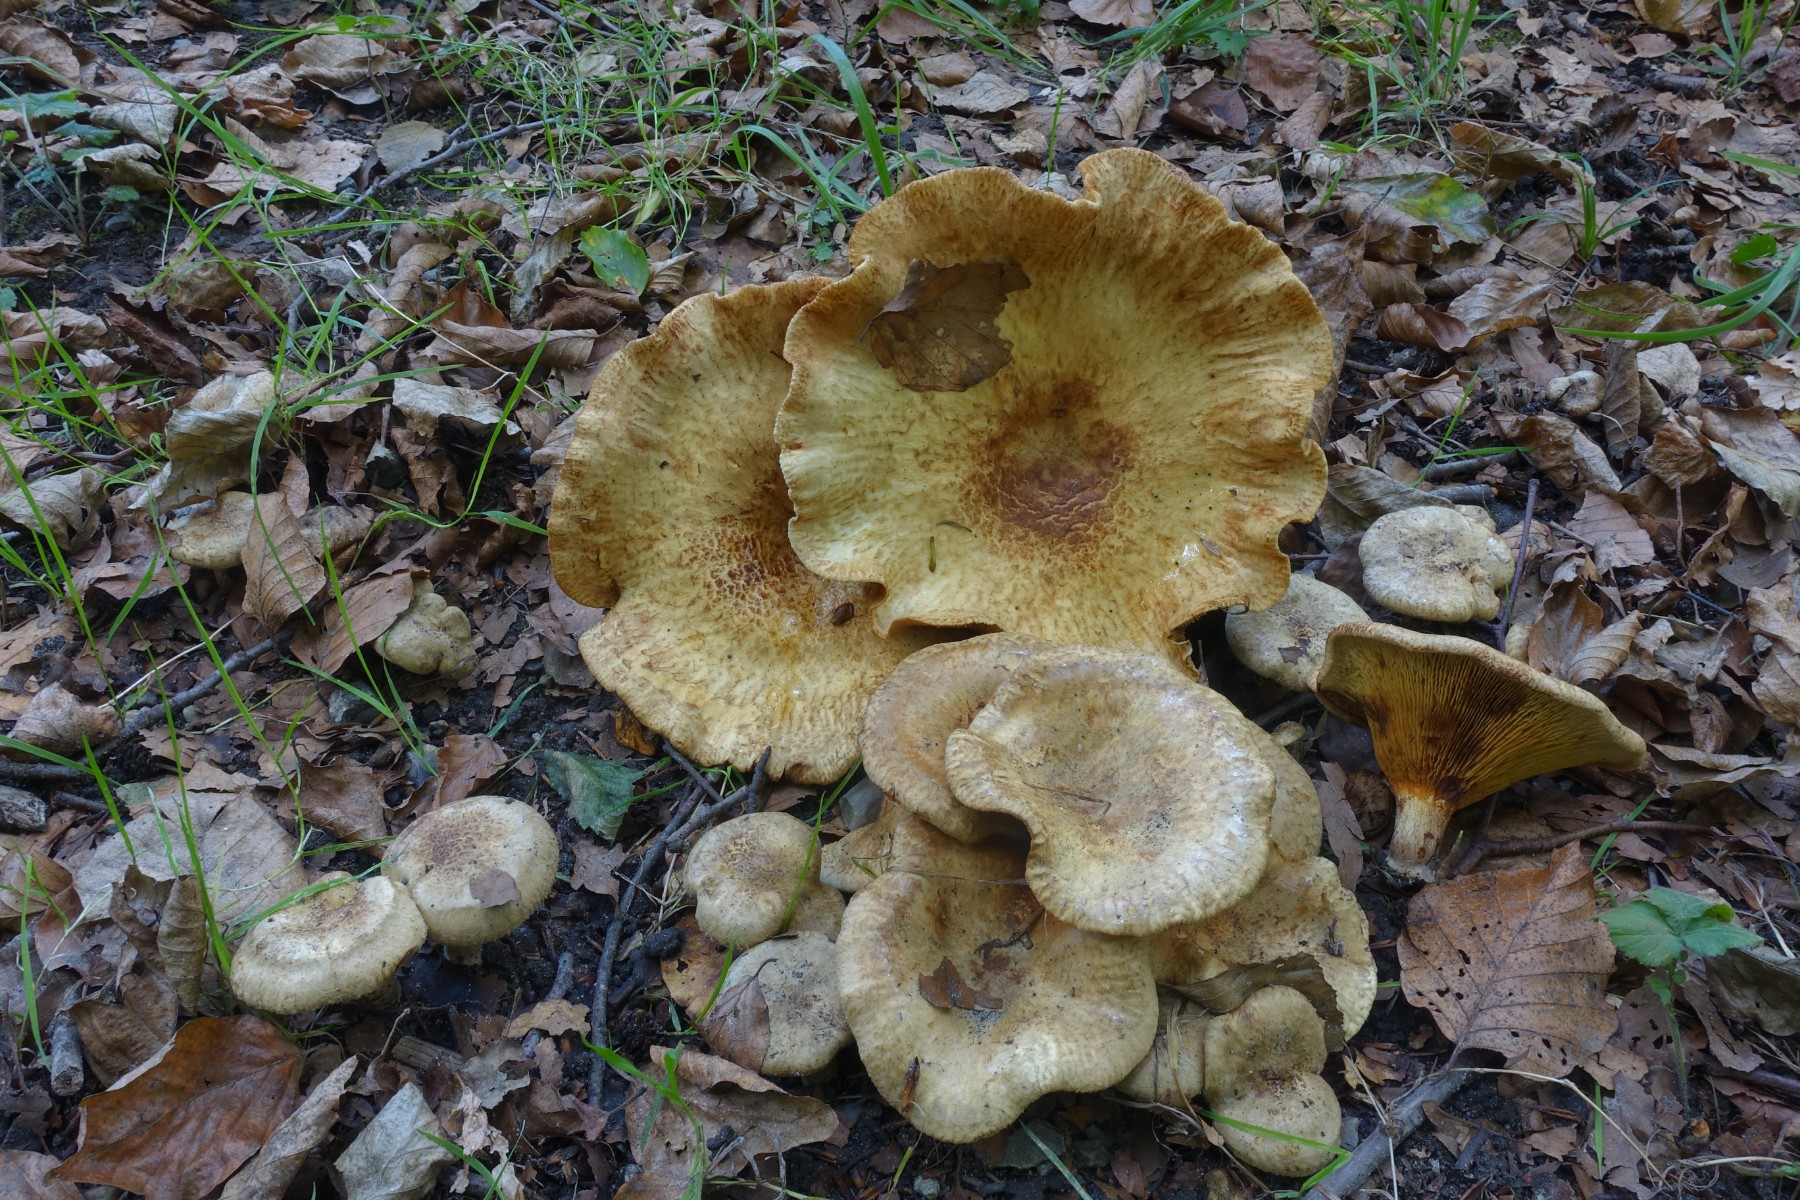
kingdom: Fungi
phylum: Basidiomycota
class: Agaricomycetes
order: Boletales
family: Paxillaceae
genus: Paxillus
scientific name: Paxillus rubicundulus
